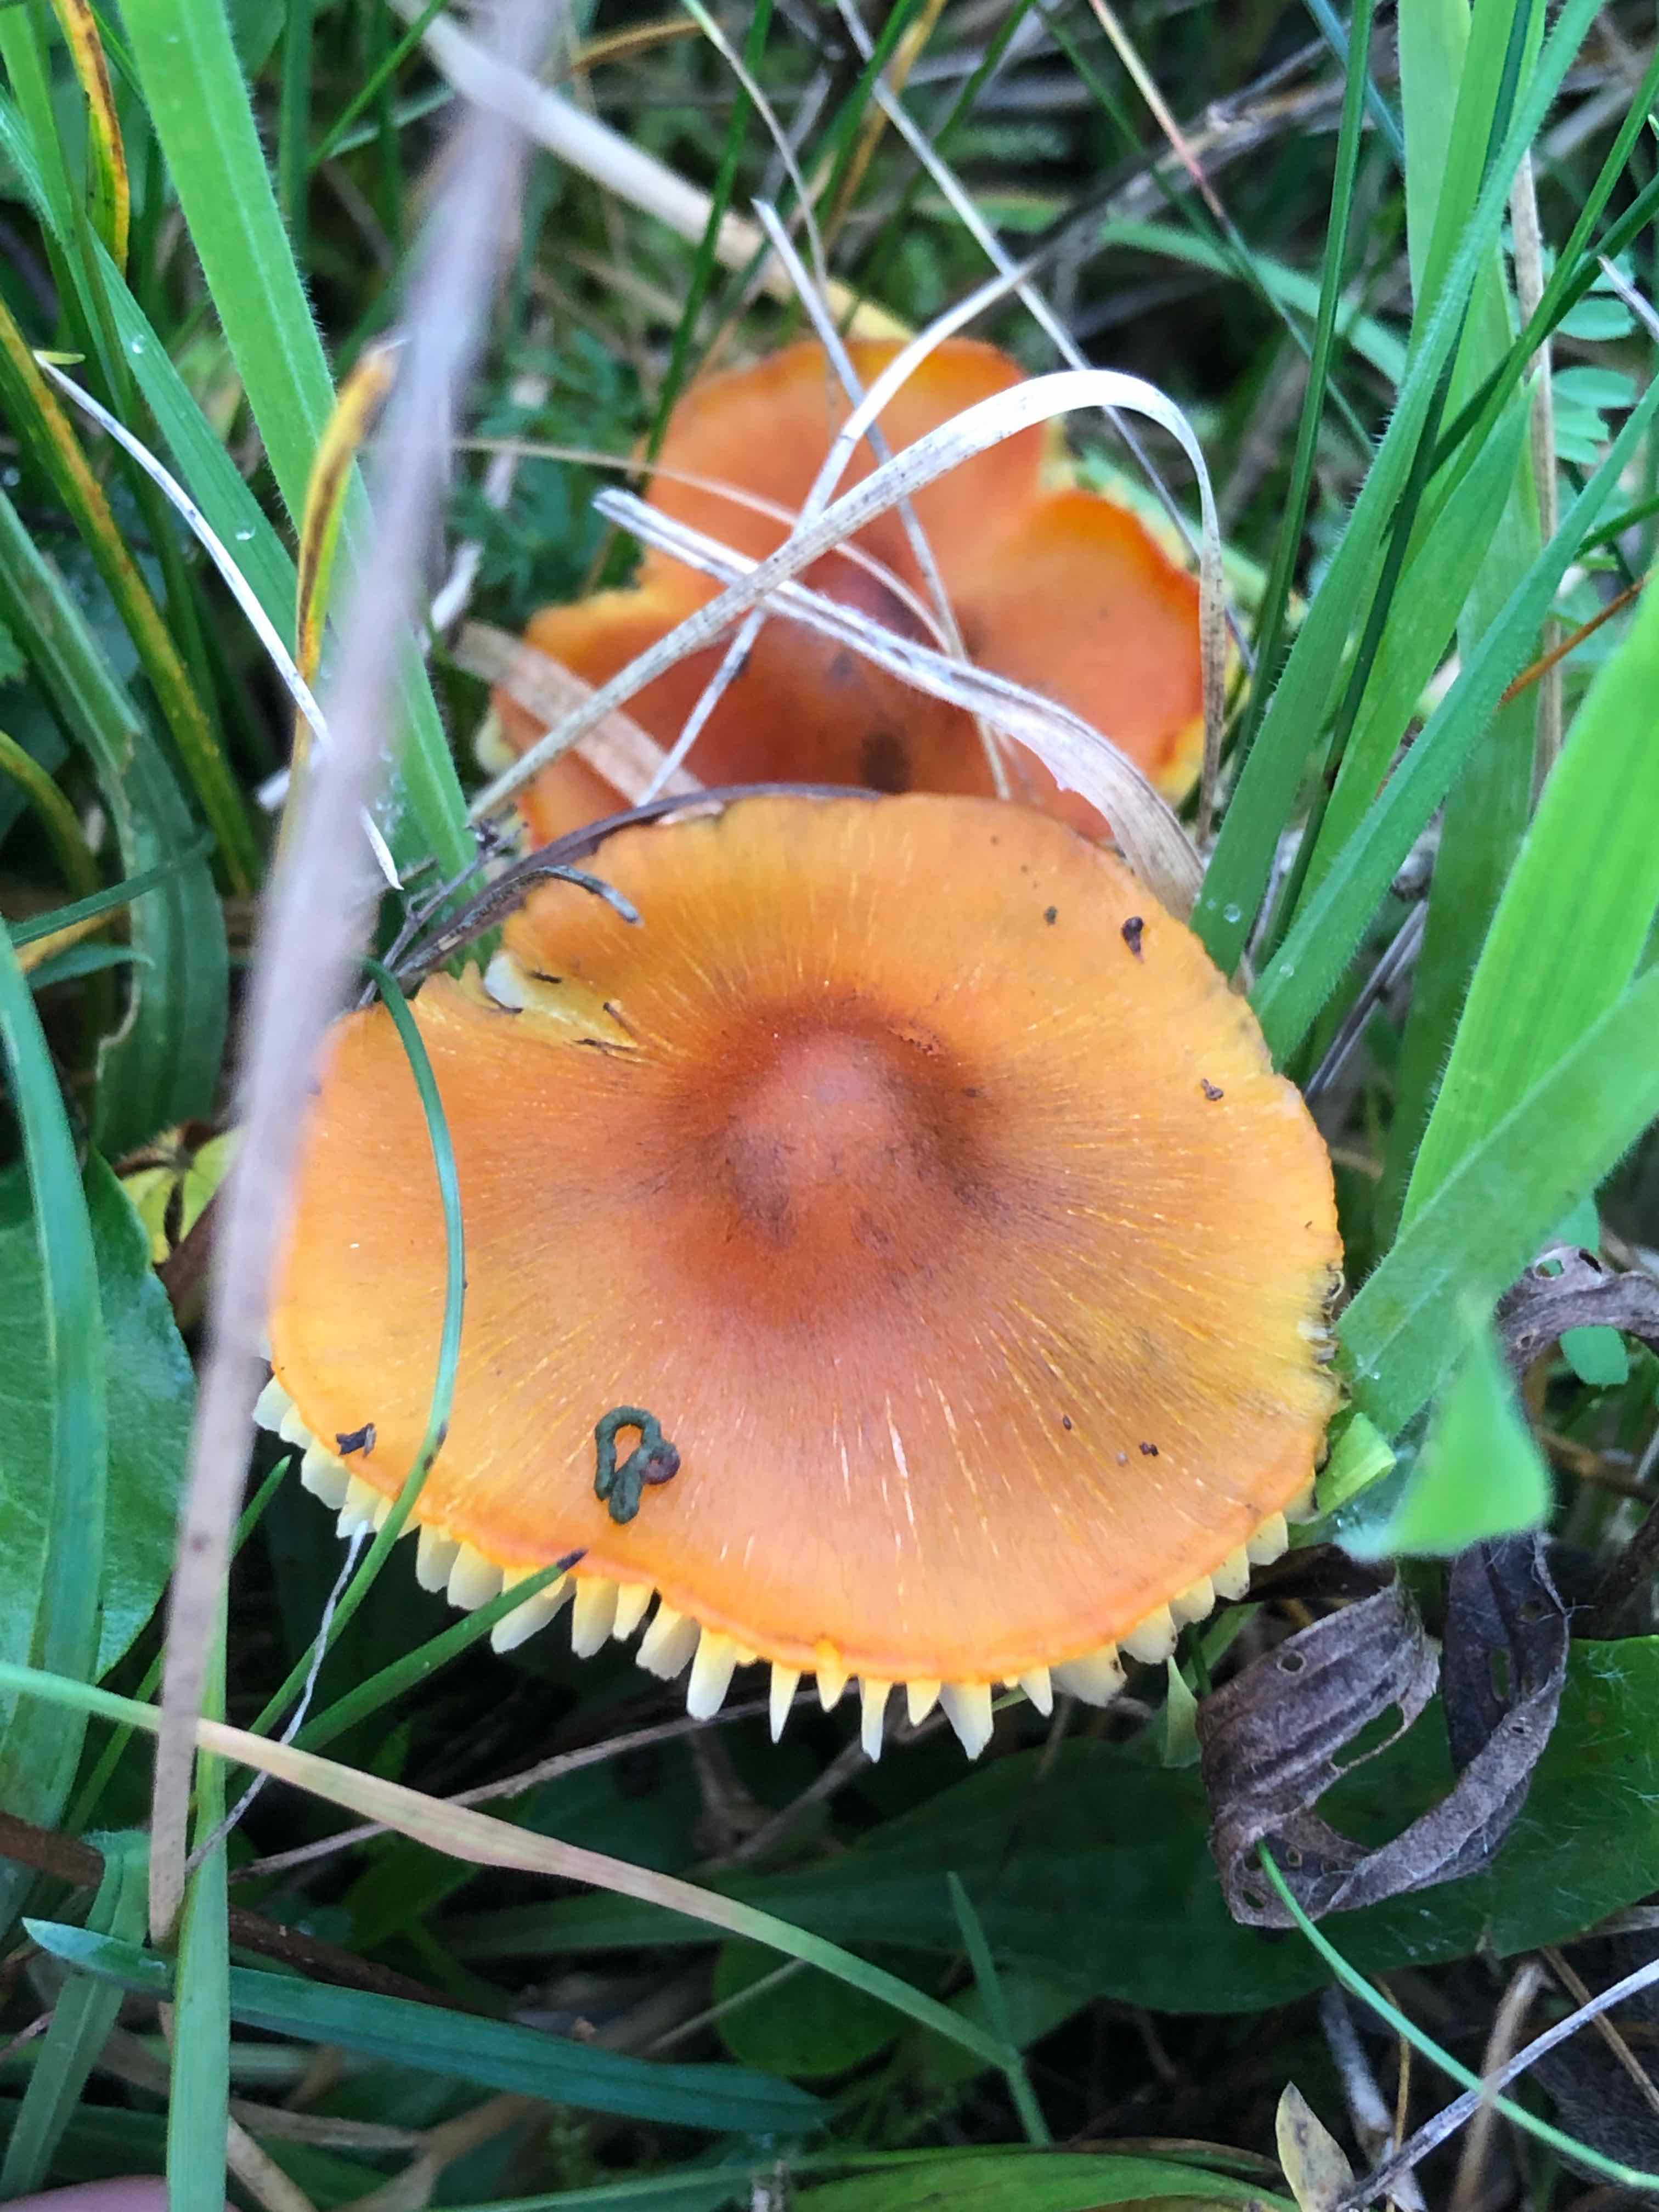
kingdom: Fungi
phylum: Basidiomycota
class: Agaricomycetes
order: Agaricales
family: Hygrophoraceae
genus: Hygrocybe
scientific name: Hygrocybe conica
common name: kegle-vokshat
